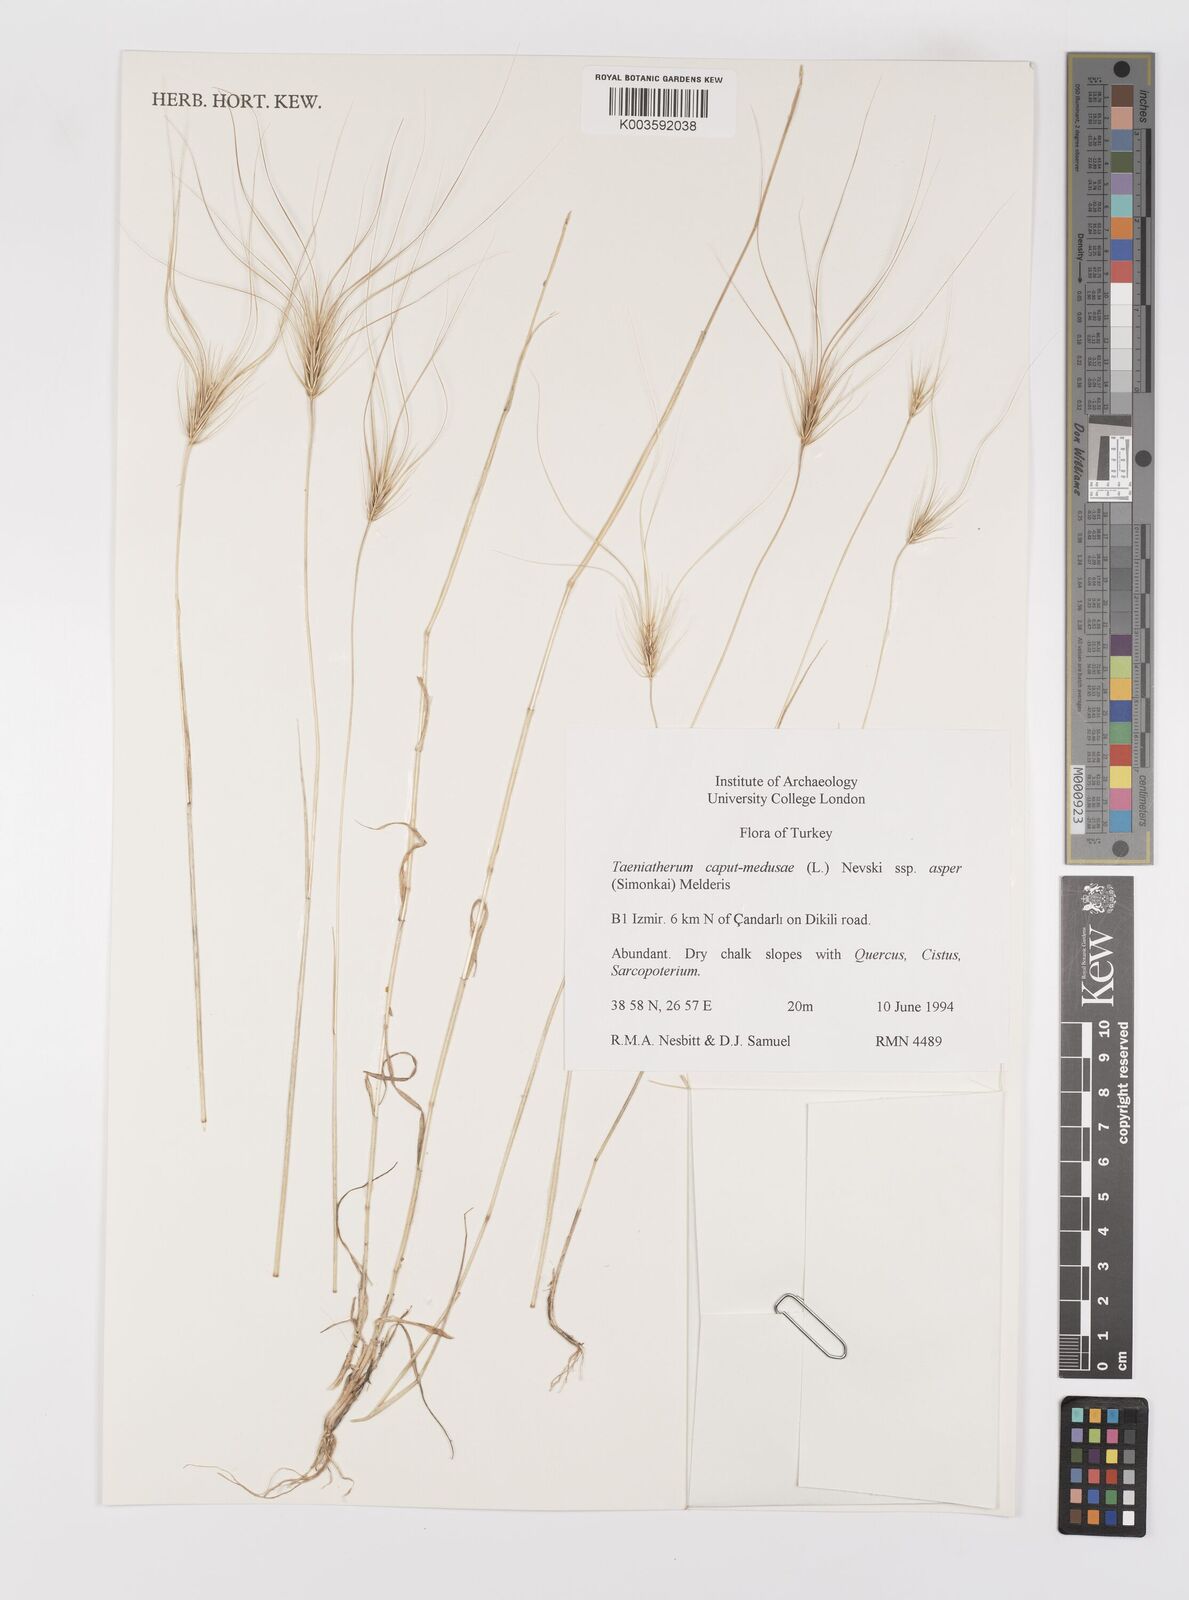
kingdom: Plantae
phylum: Tracheophyta
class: Liliopsida
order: Poales
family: Poaceae
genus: Taeniatherum
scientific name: Taeniatherum caput-medusae
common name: Medusahead
